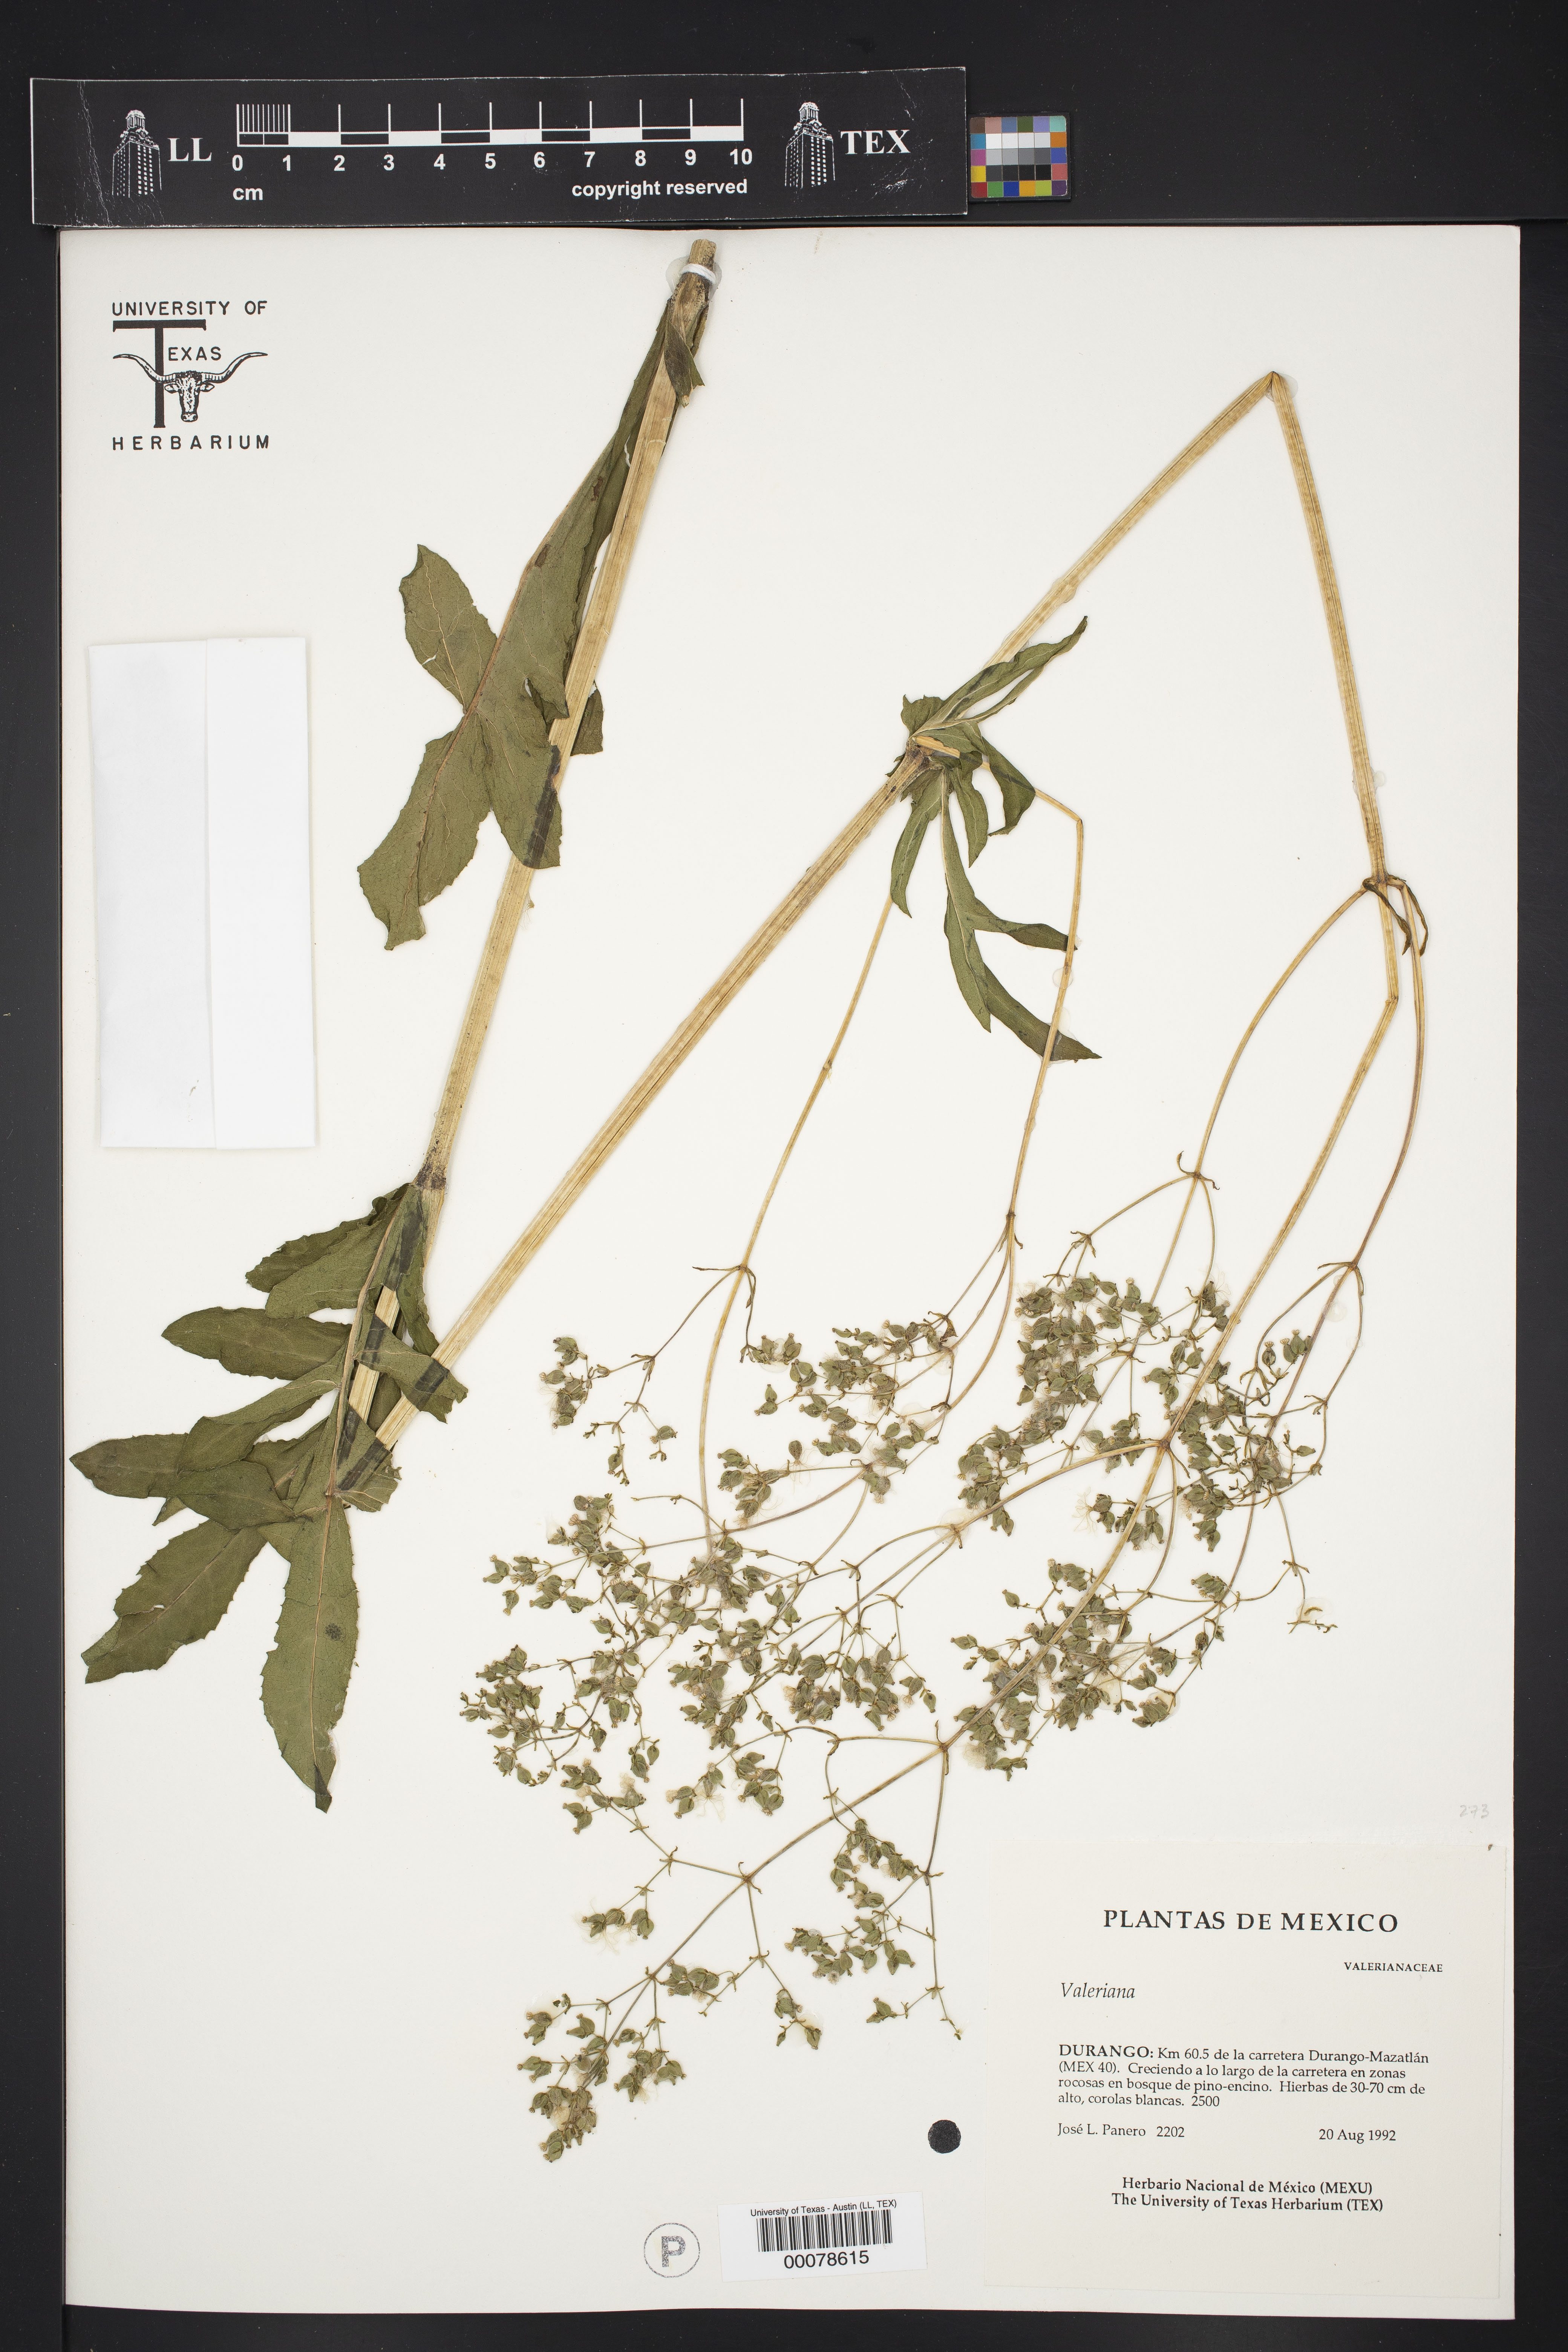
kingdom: Plantae
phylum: Tracheophyta
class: Magnoliopsida
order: Dipsacales
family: Caprifoliaceae
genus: Valeriana
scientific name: Valeriana palmeri
